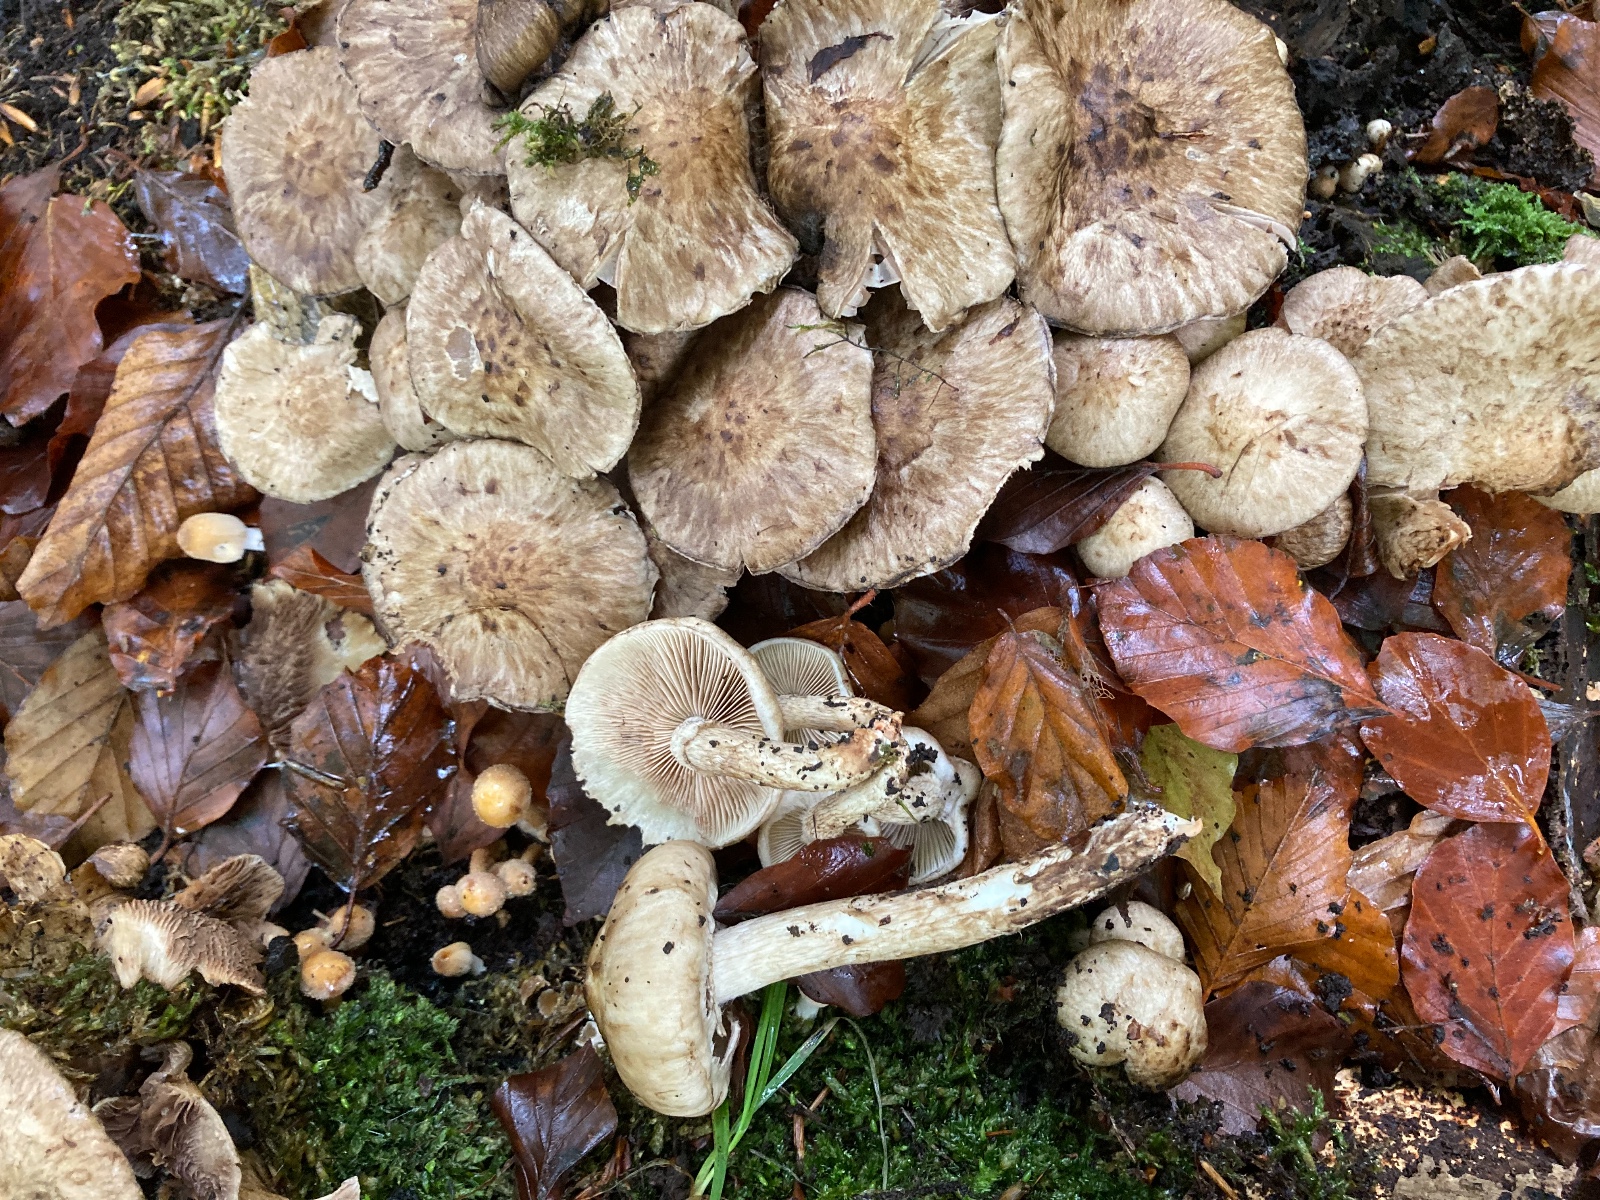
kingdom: Fungi
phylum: Basidiomycota
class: Agaricomycetes
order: Agaricales
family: Psathyrellaceae
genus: Psathyrella
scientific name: Psathyrella maculata
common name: sortskællet mørkhat
